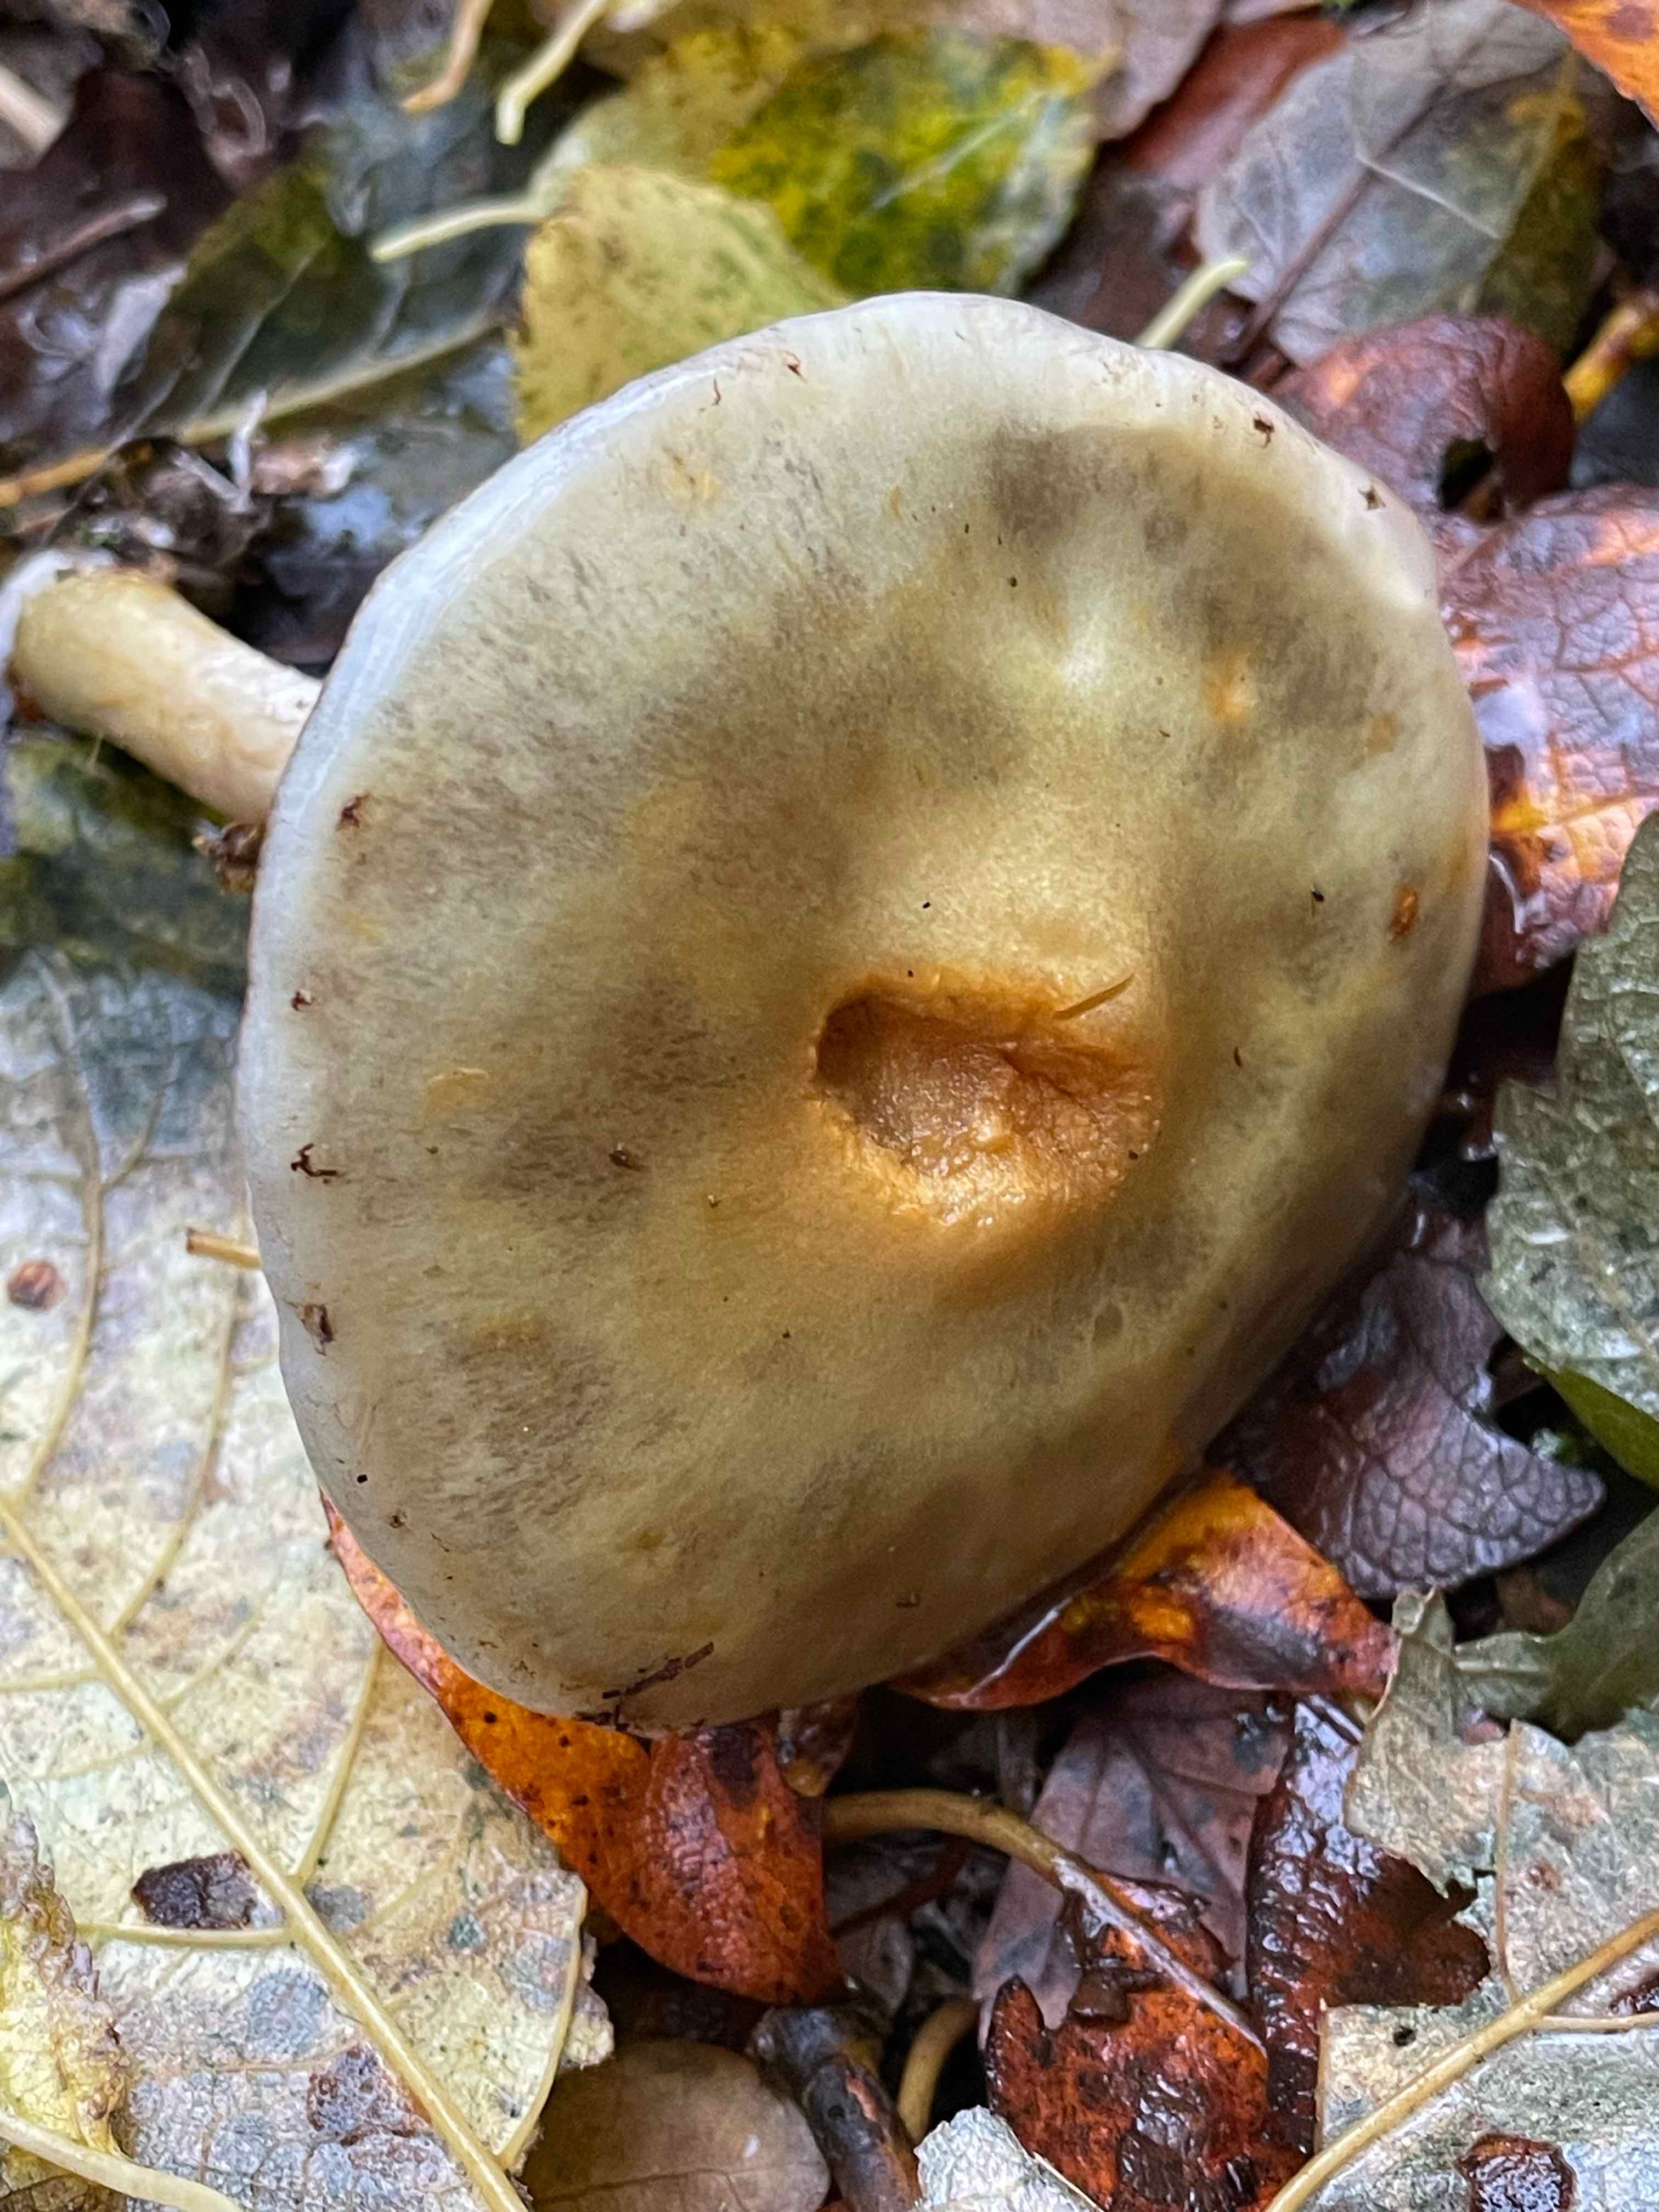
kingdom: Fungi
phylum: Basidiomycota
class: Agaricomycetes
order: Agaricales
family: Strophariaceae
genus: Stropharia
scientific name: Stropharia cyanea
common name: blågrøn bredblad
